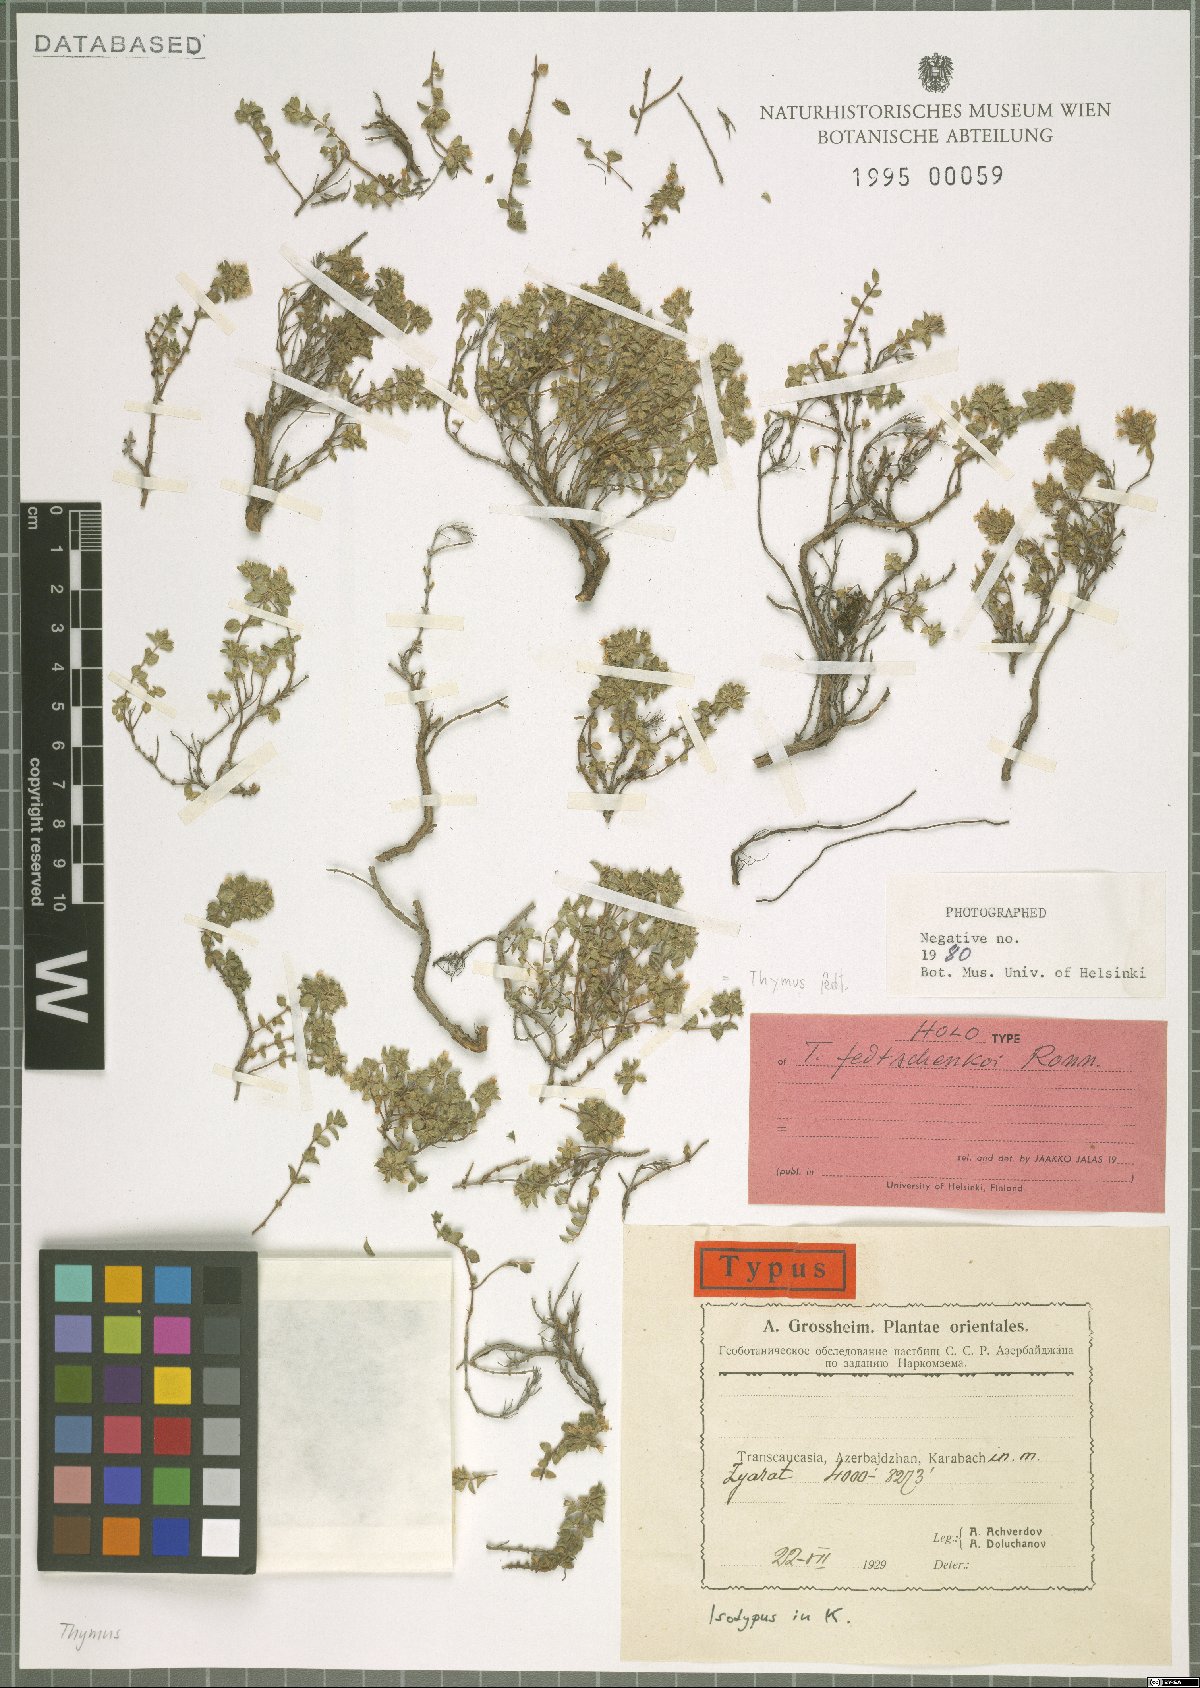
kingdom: Plantae
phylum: Tracheophyta
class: Magnoliopsida
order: Lamiales
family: Lamiaceae
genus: Thymus
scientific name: Thymus fedtschenkoi
